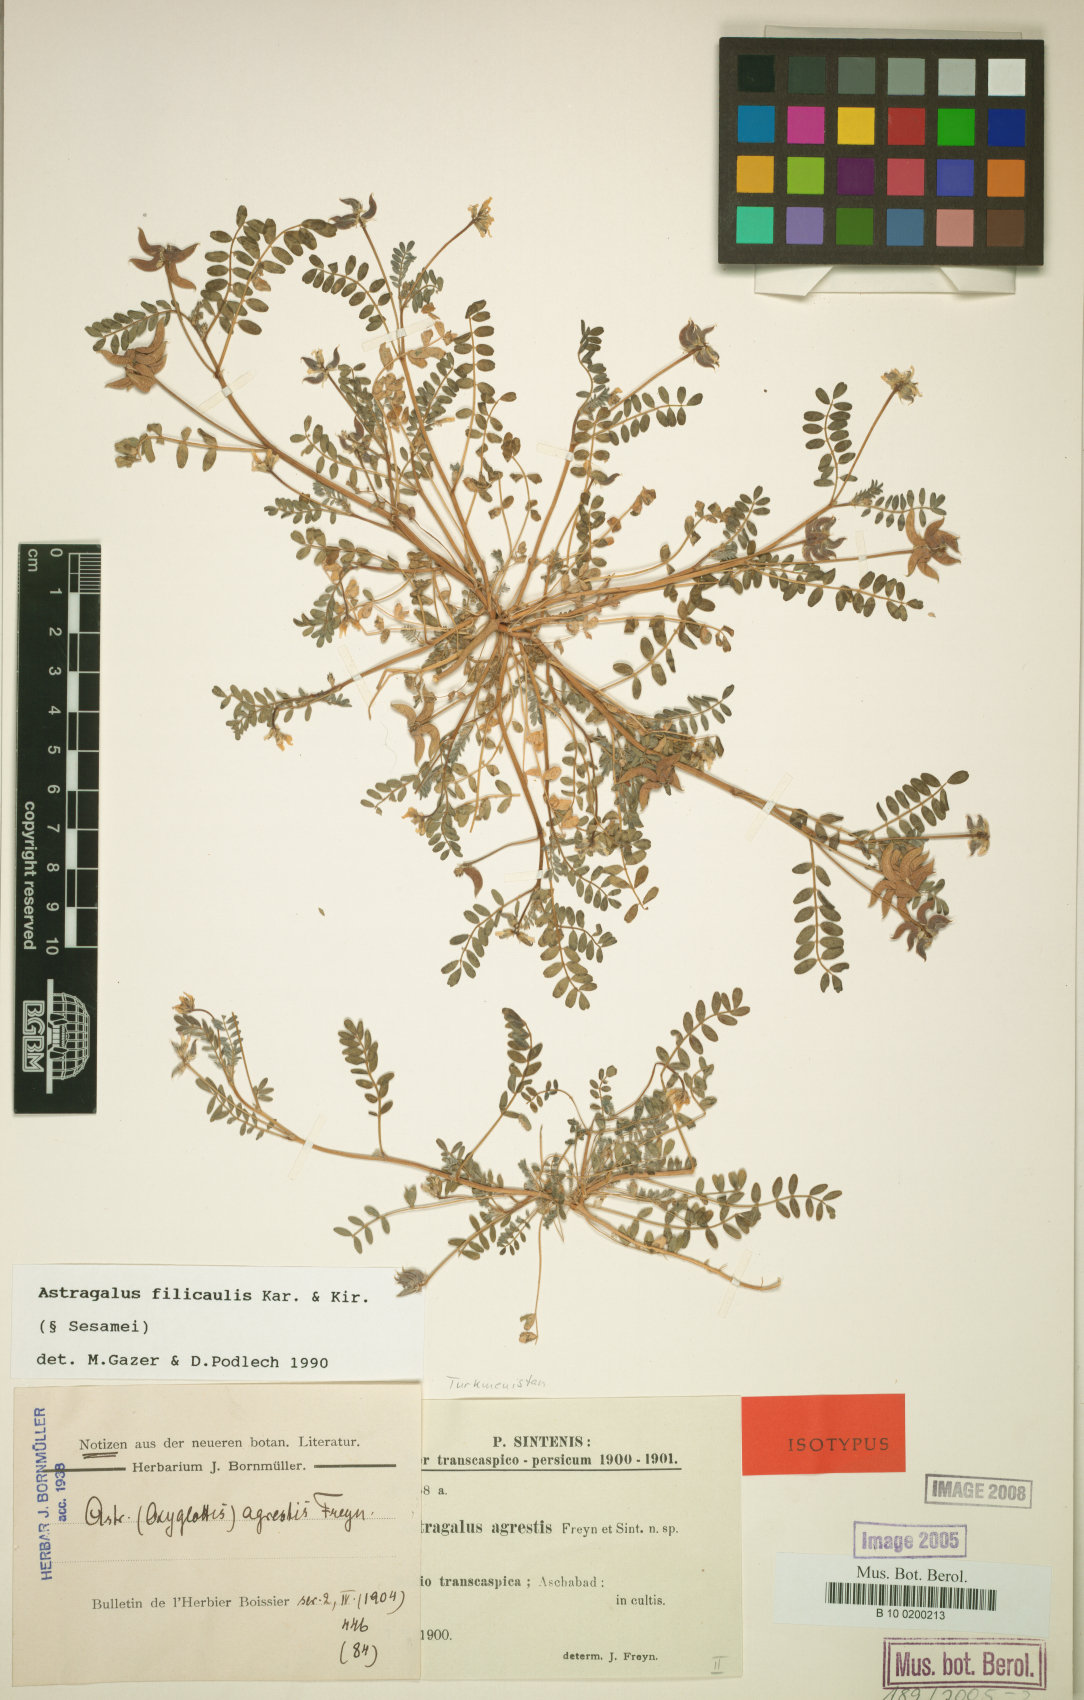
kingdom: Plantae
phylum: Tracheophyta
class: Magnoliopsida
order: Fabales
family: Fabaceae
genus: Astragalus
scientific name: Astragalus filicaulis
